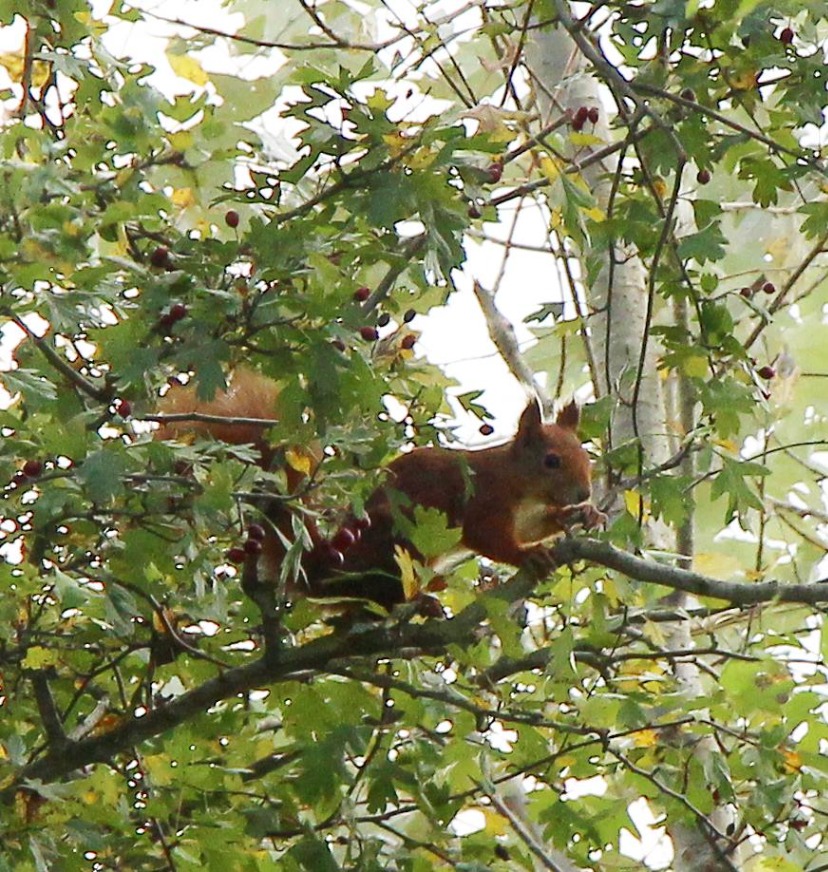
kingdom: Animalia
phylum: Chordata
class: Mammalia
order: Rodentia
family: Sciuridae
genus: Sciurus
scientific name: Sciurus vulgaris
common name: Egern
